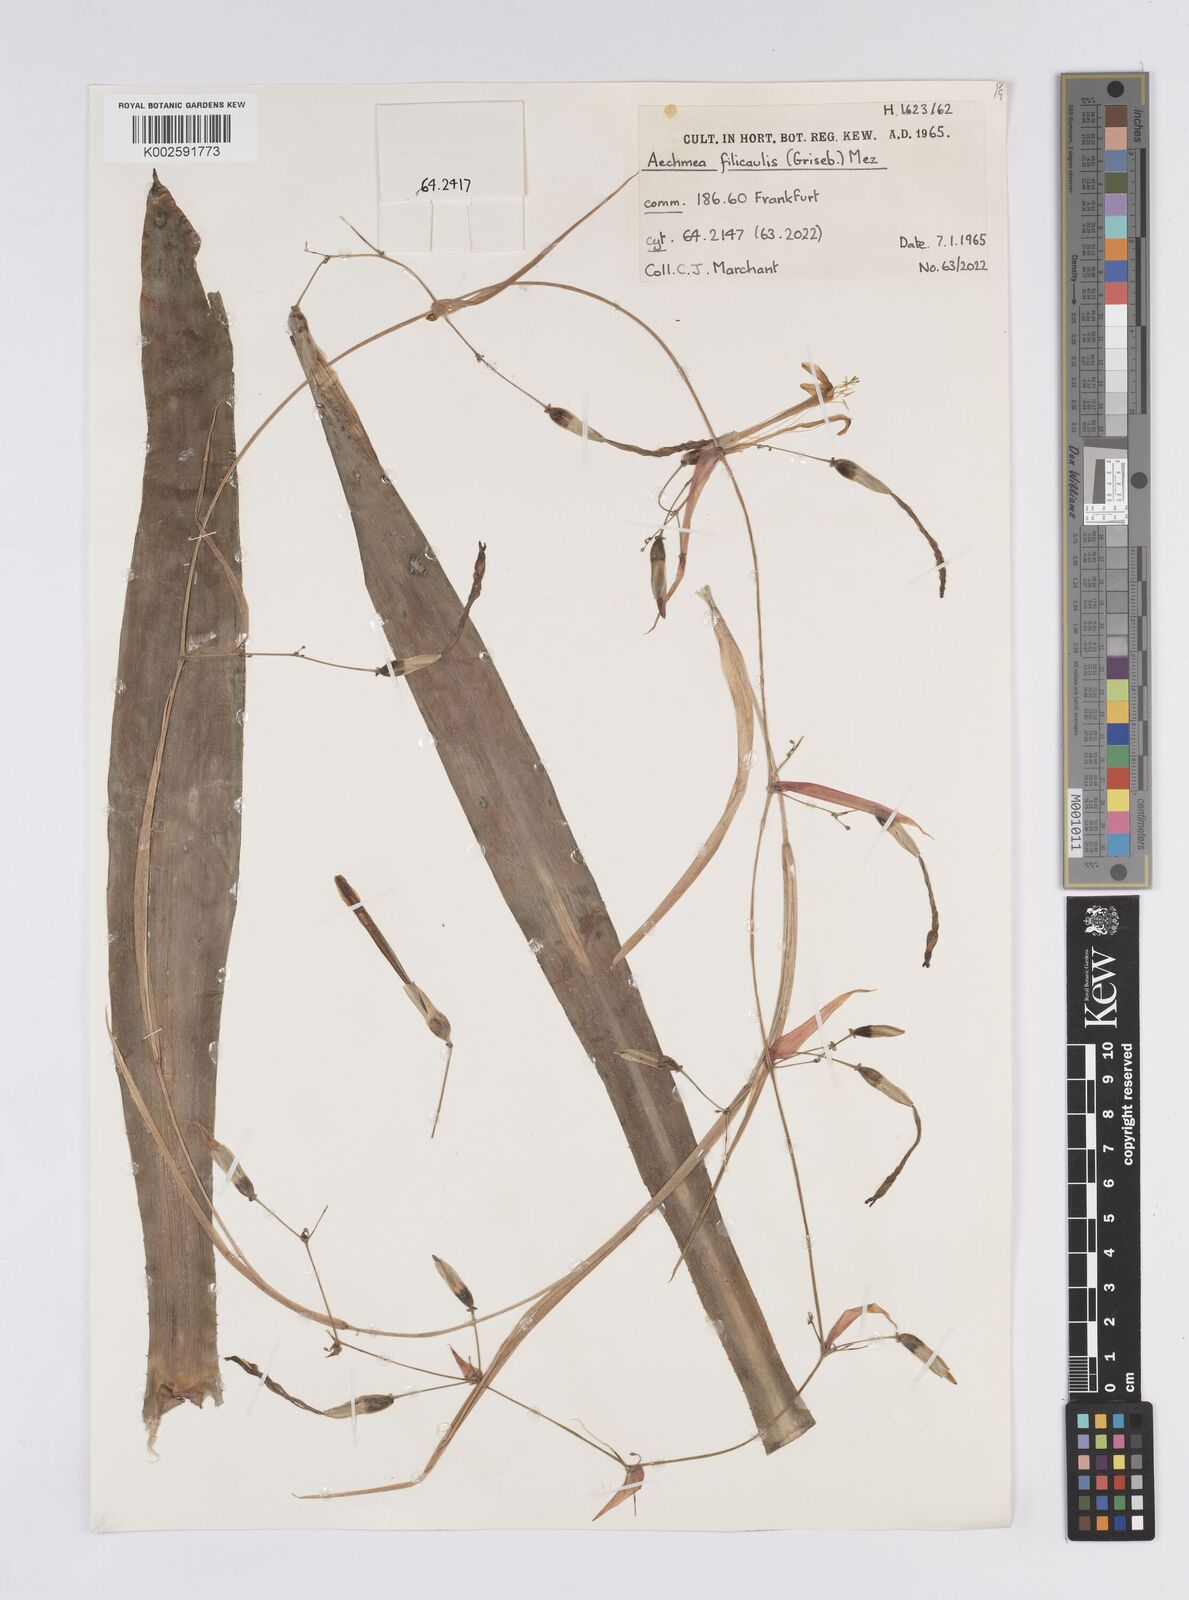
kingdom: Plantae
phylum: Tracheophyta
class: Liliopsida
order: Poales
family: Bromeliaceae
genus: Aechmea
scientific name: Aechmea filicaulis
